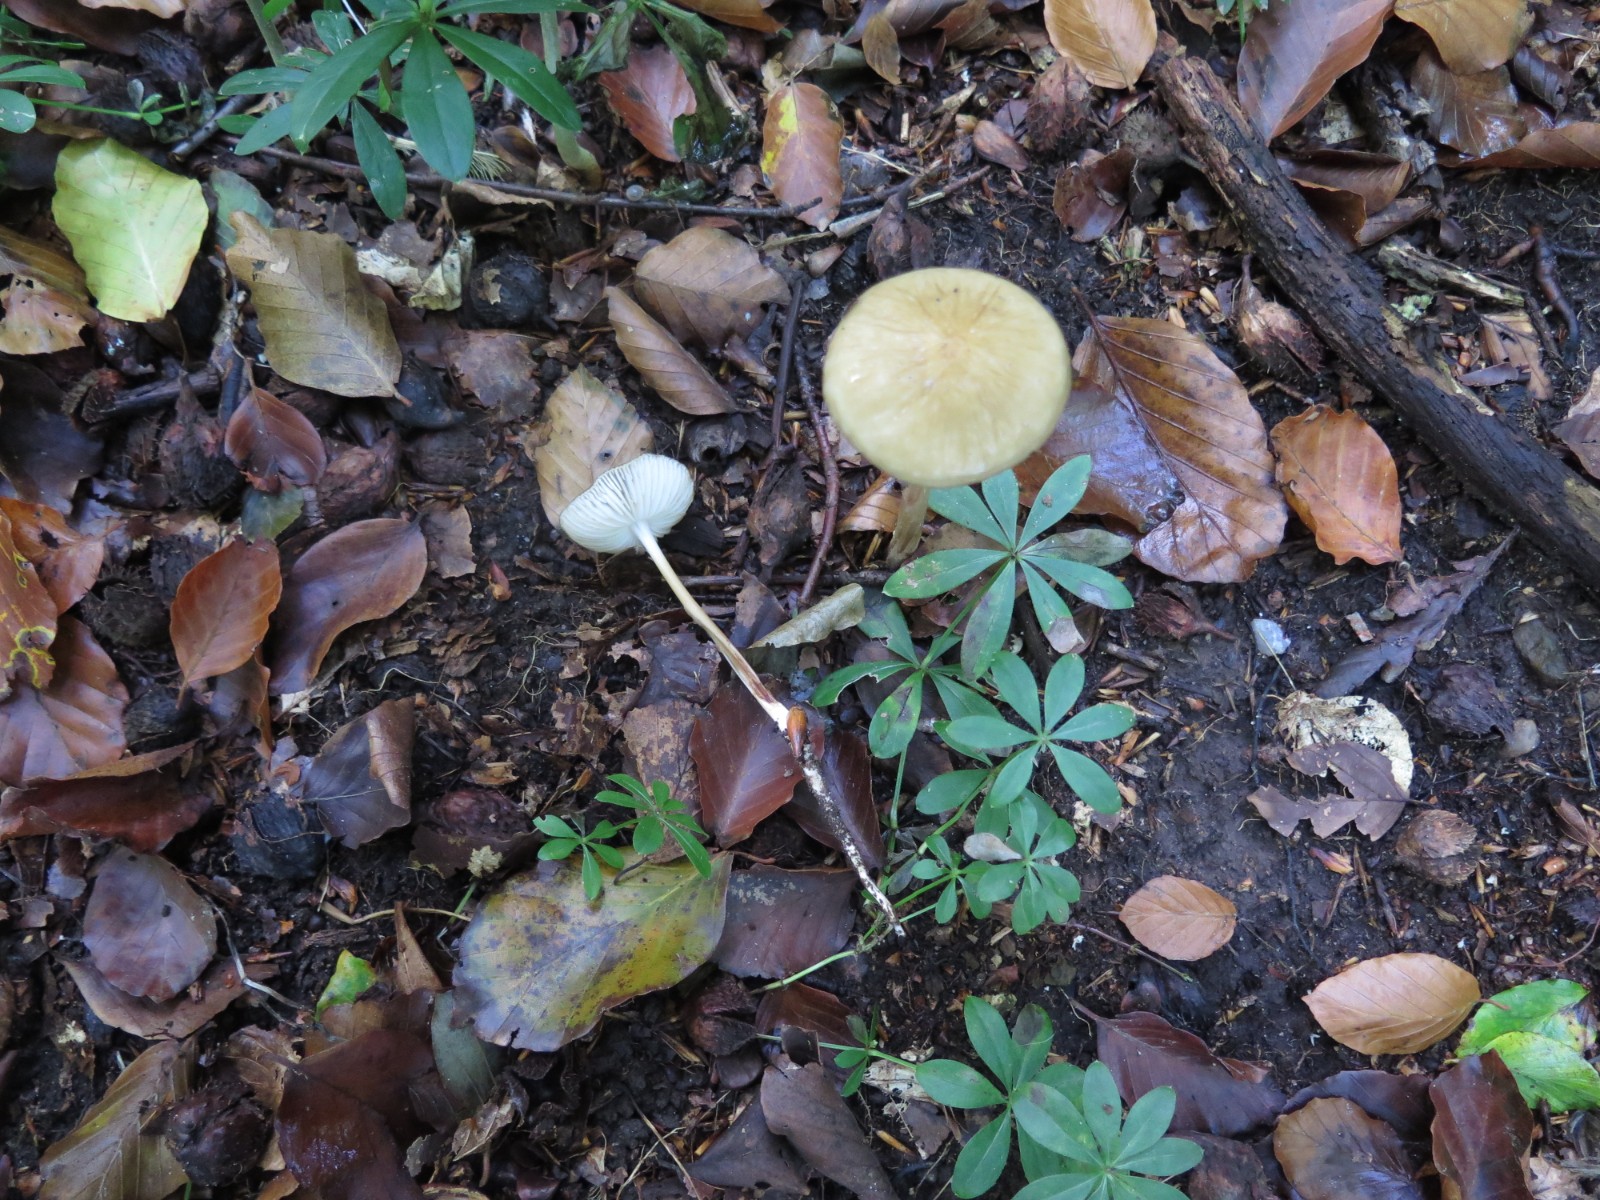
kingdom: Fungi
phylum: Basidiomycota
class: Agaricomycetes
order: Agaricales
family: Physalacriaceae
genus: Hymenopellis
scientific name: Hymenopellis radicata
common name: almindelig pælerodshat
